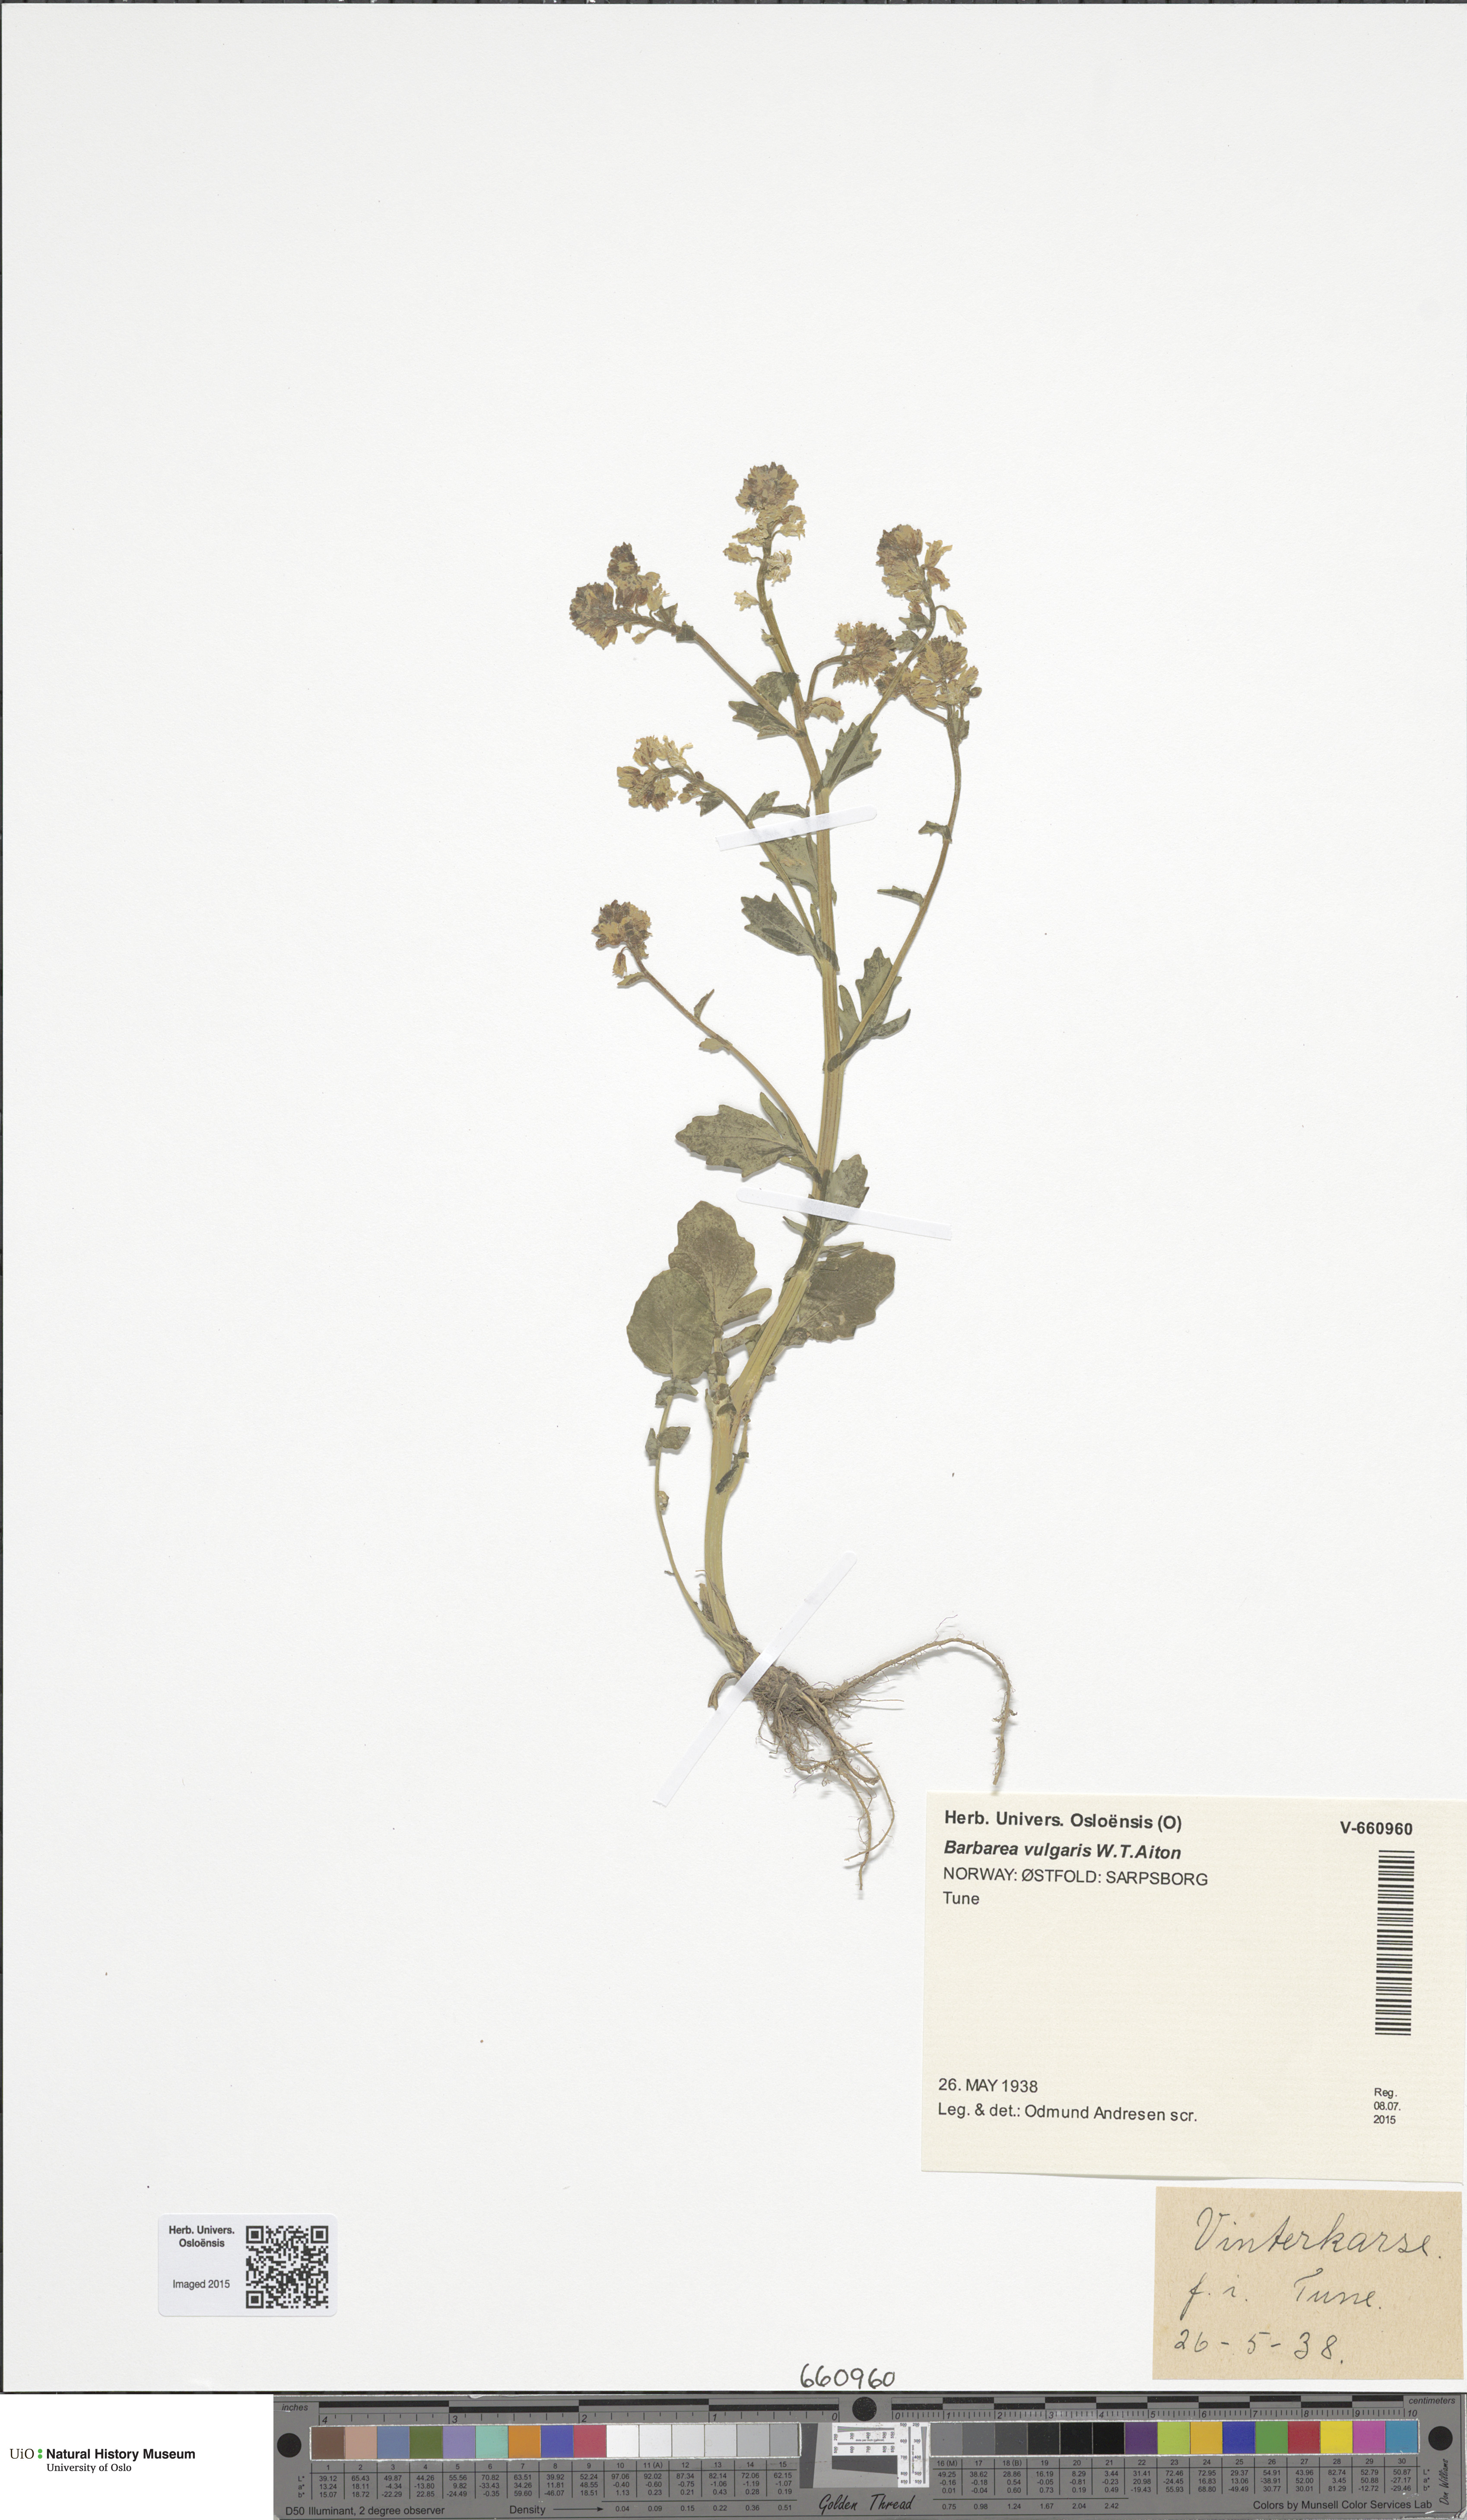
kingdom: Plantae
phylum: Tracheophyta
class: Magnoliopsida
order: Brassicales
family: Brassicaceae
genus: Barbarea
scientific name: Barbarea vulgaris
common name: Cressy-greens
